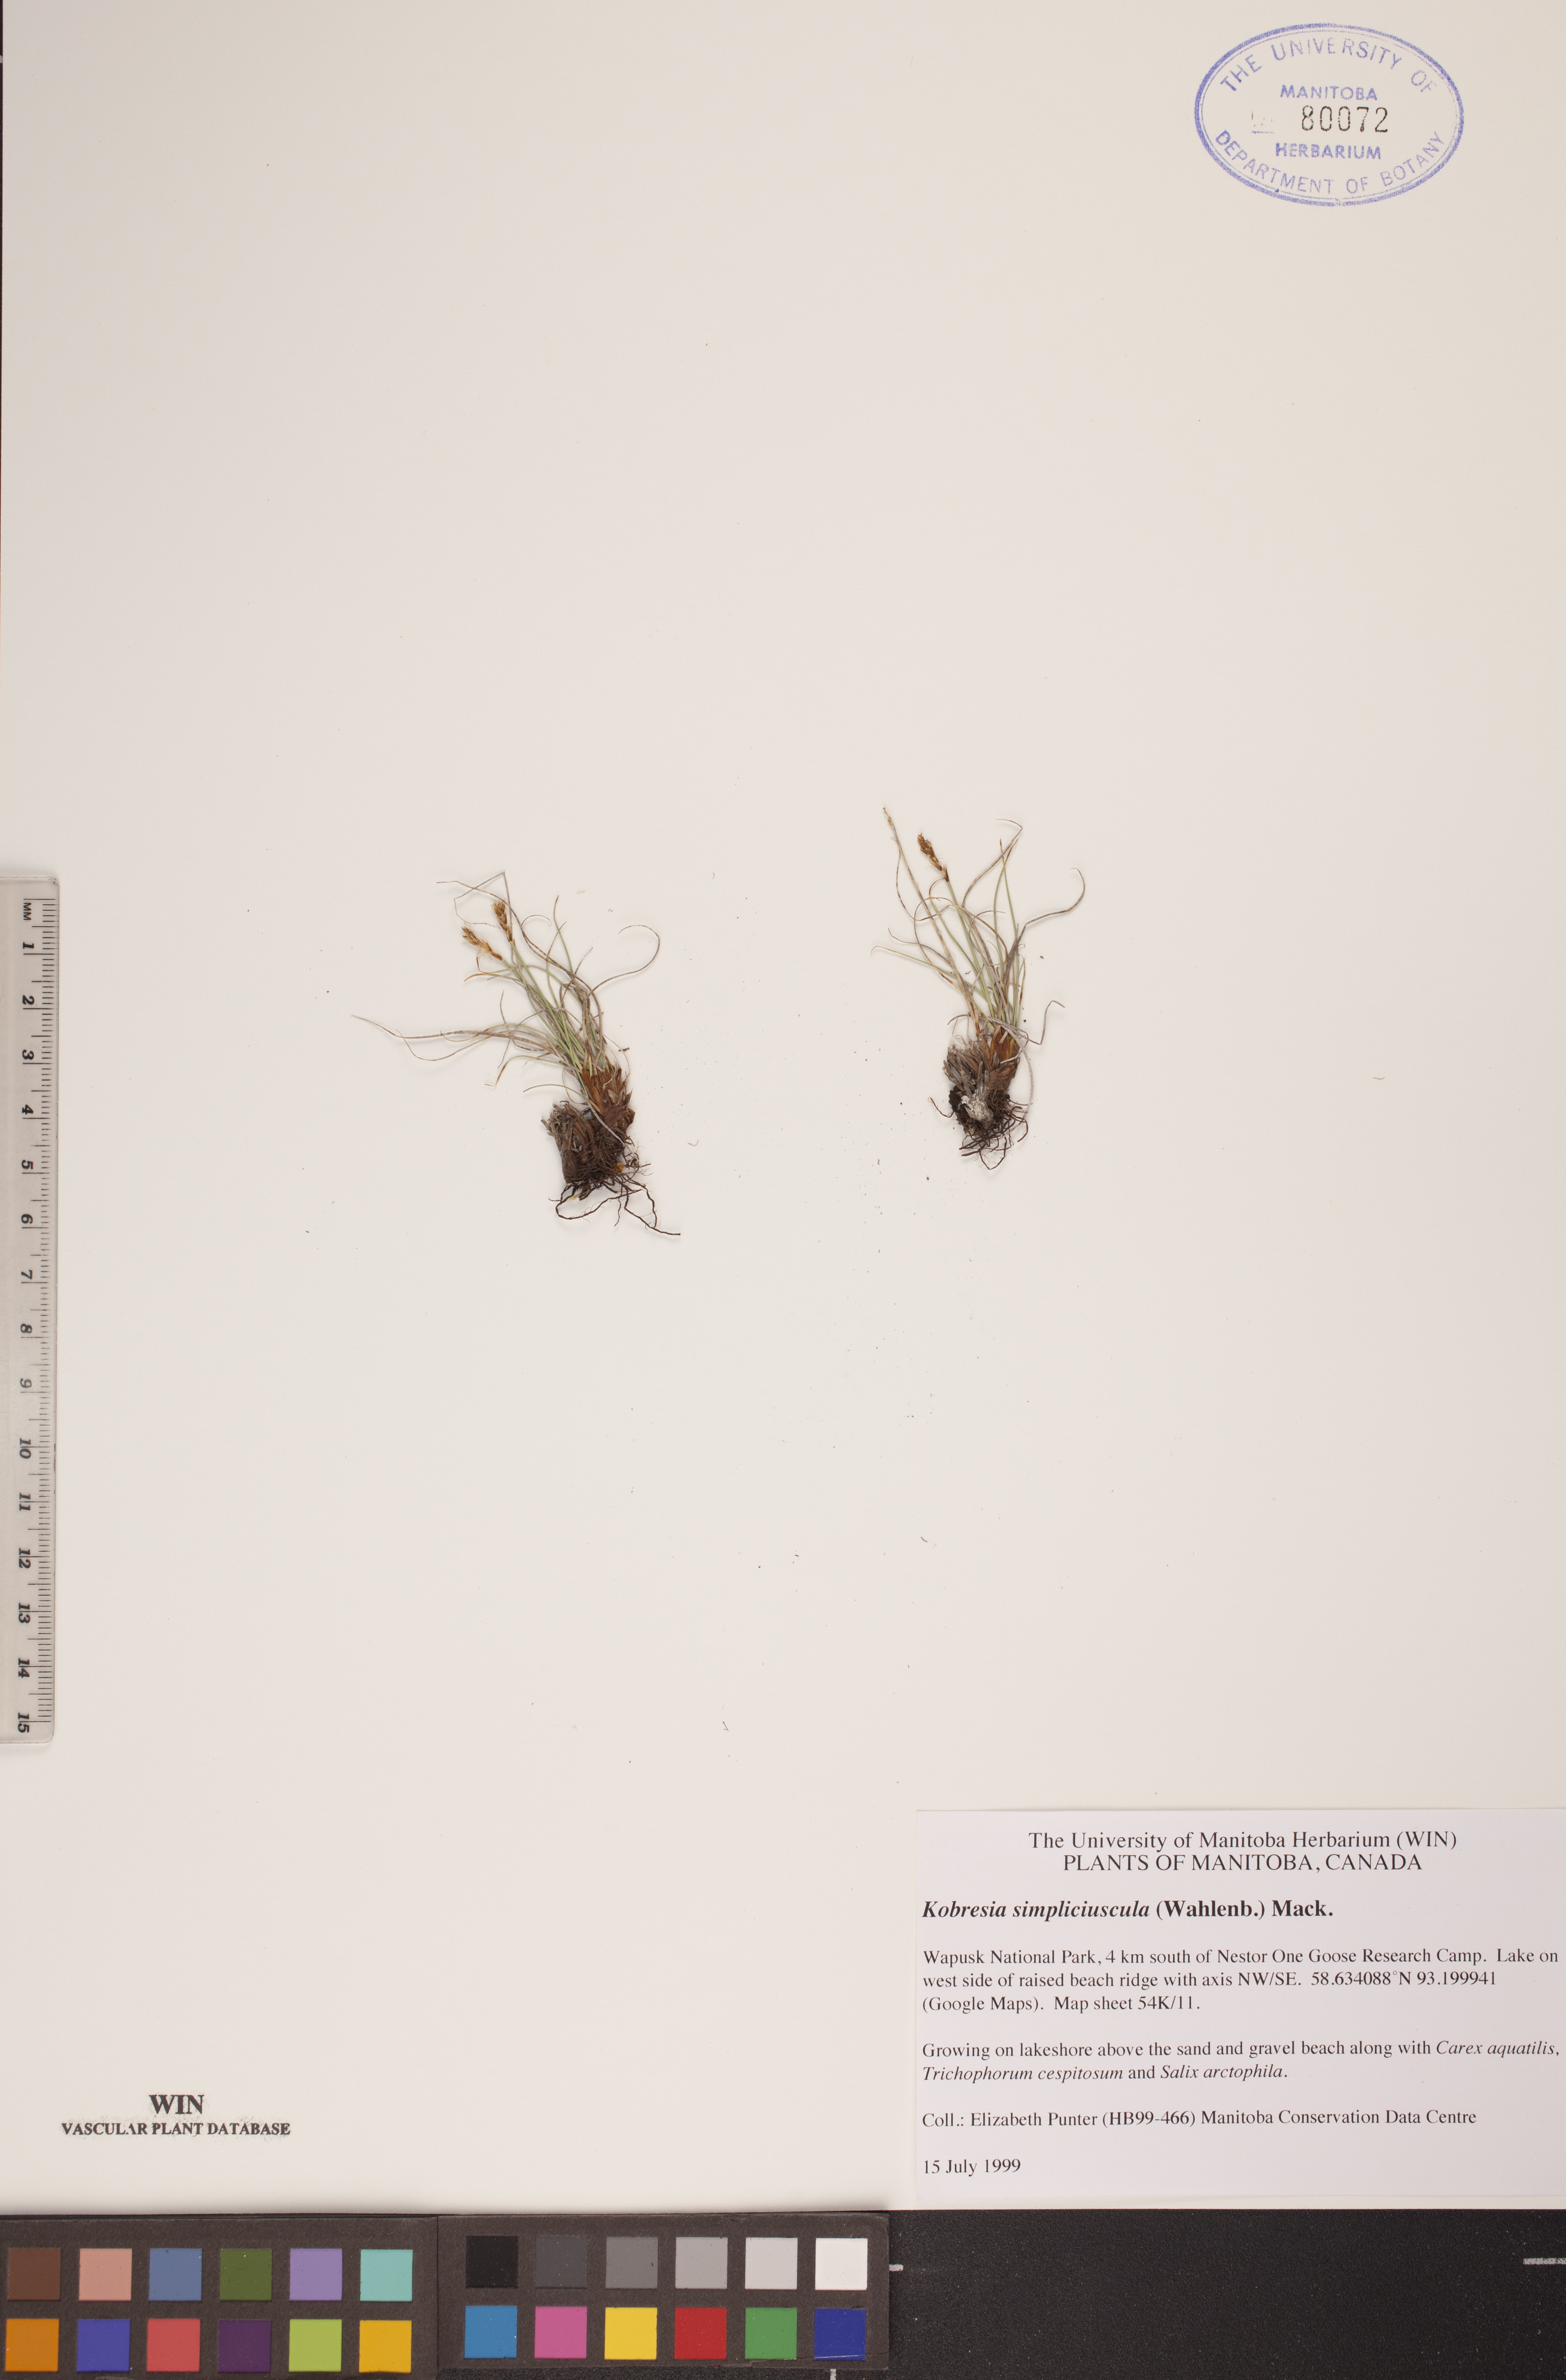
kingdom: Plantae
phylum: Tracheophyta
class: Liliopsida
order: Poales
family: Cyperaceae
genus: Carex
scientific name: Carex simpliciuscula
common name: Simple bog sedge
